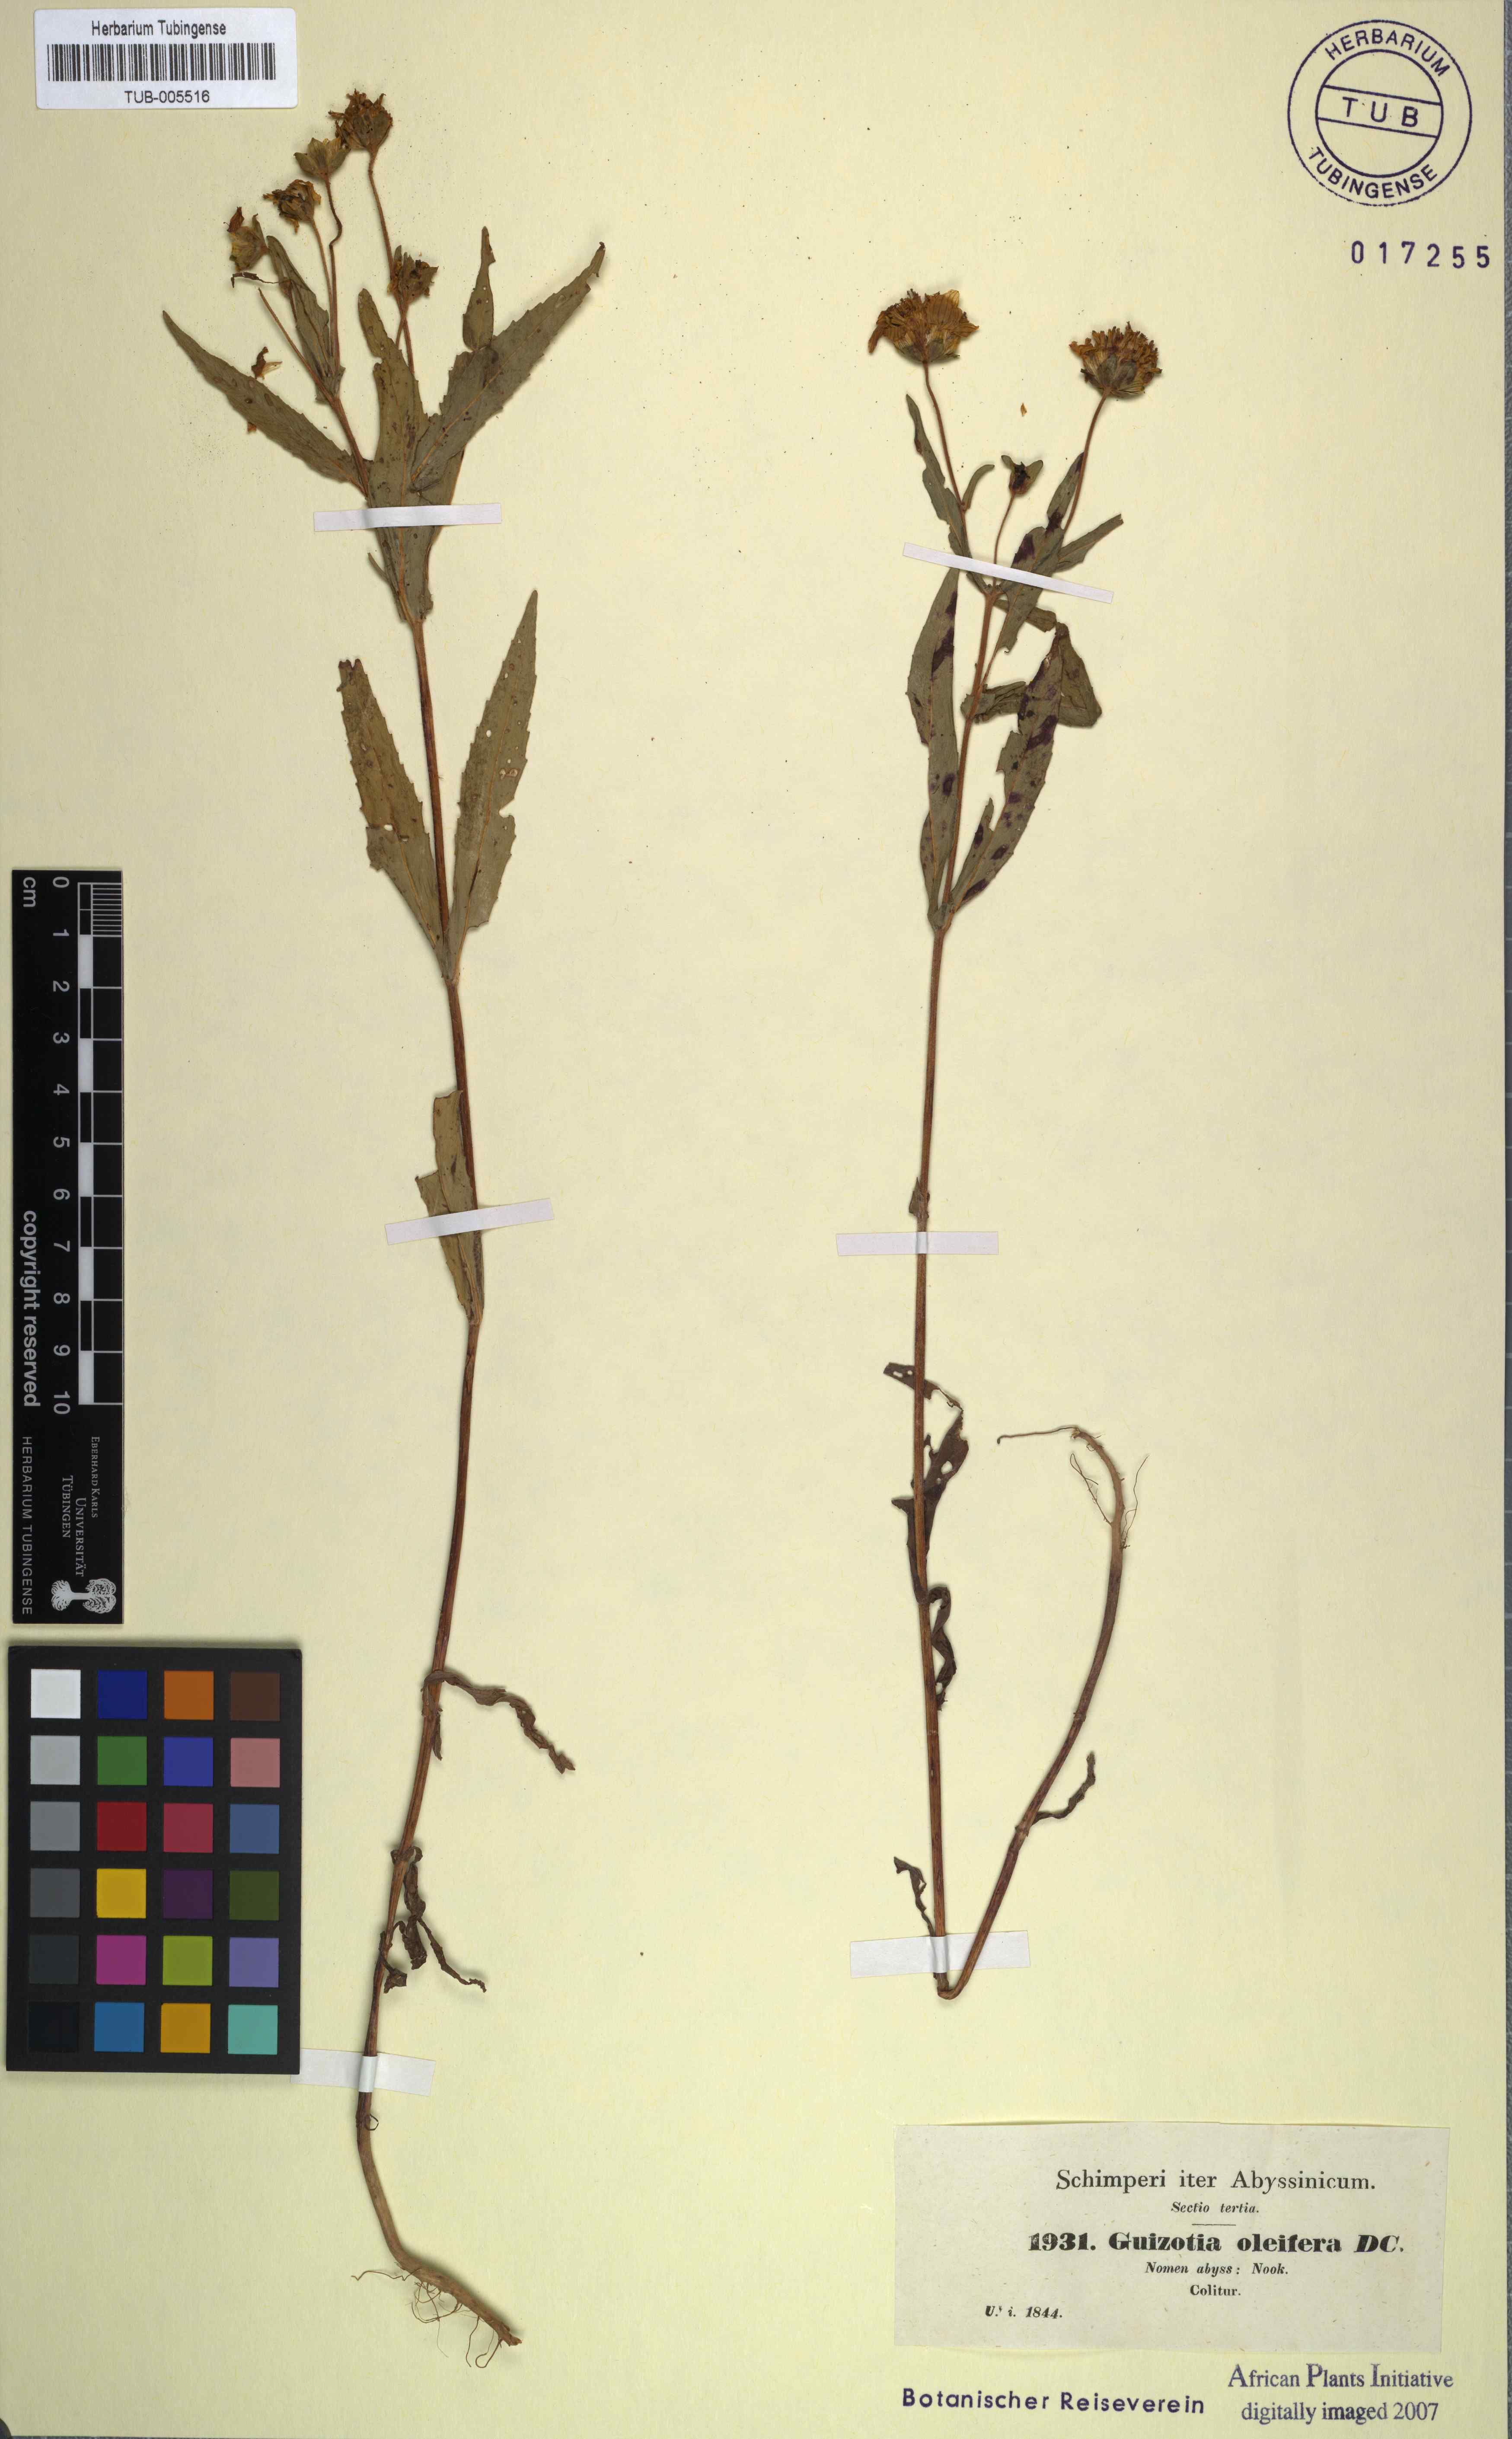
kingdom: Plantae
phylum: Tracheophyta
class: Magnoliopsida
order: Asterales
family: Asteraceae
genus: Guizotia
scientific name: Guizotia abyssinica
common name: Niger
